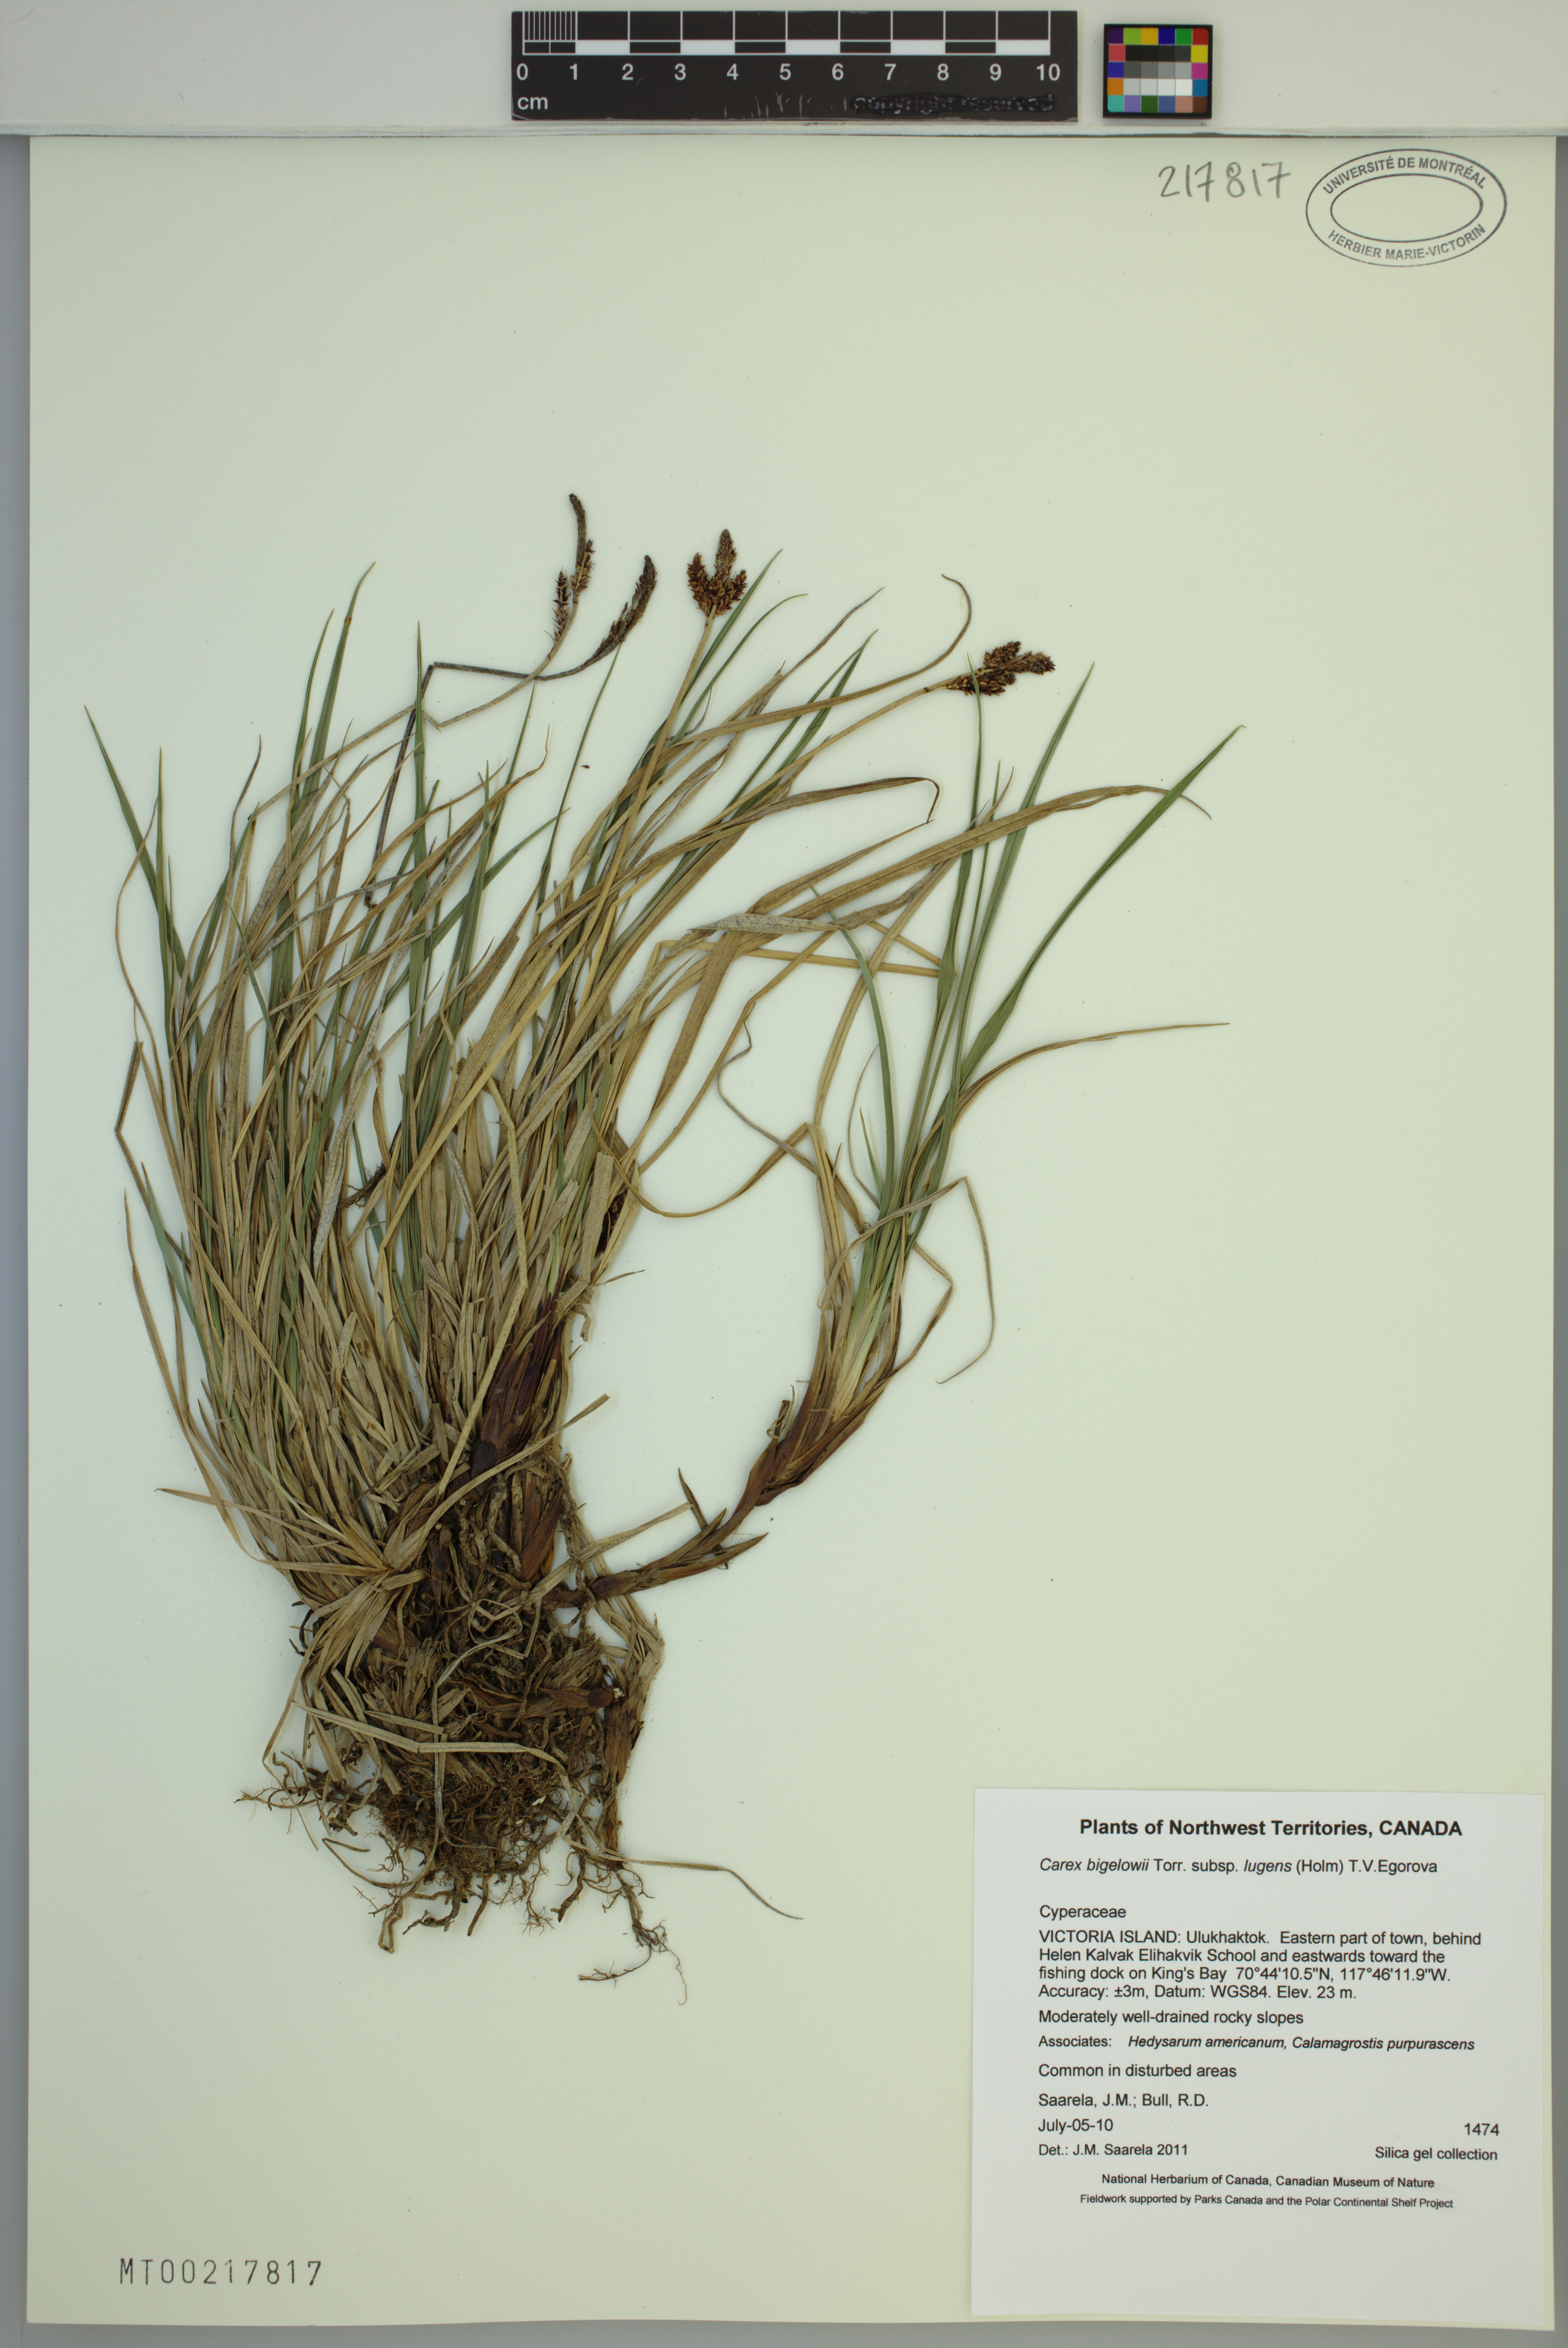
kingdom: Plantae
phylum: Tracheophyta
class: Liliopsida
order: Poales
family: Cyperaceae
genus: Carex
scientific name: Carex bigelowii
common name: Stiff sedge
